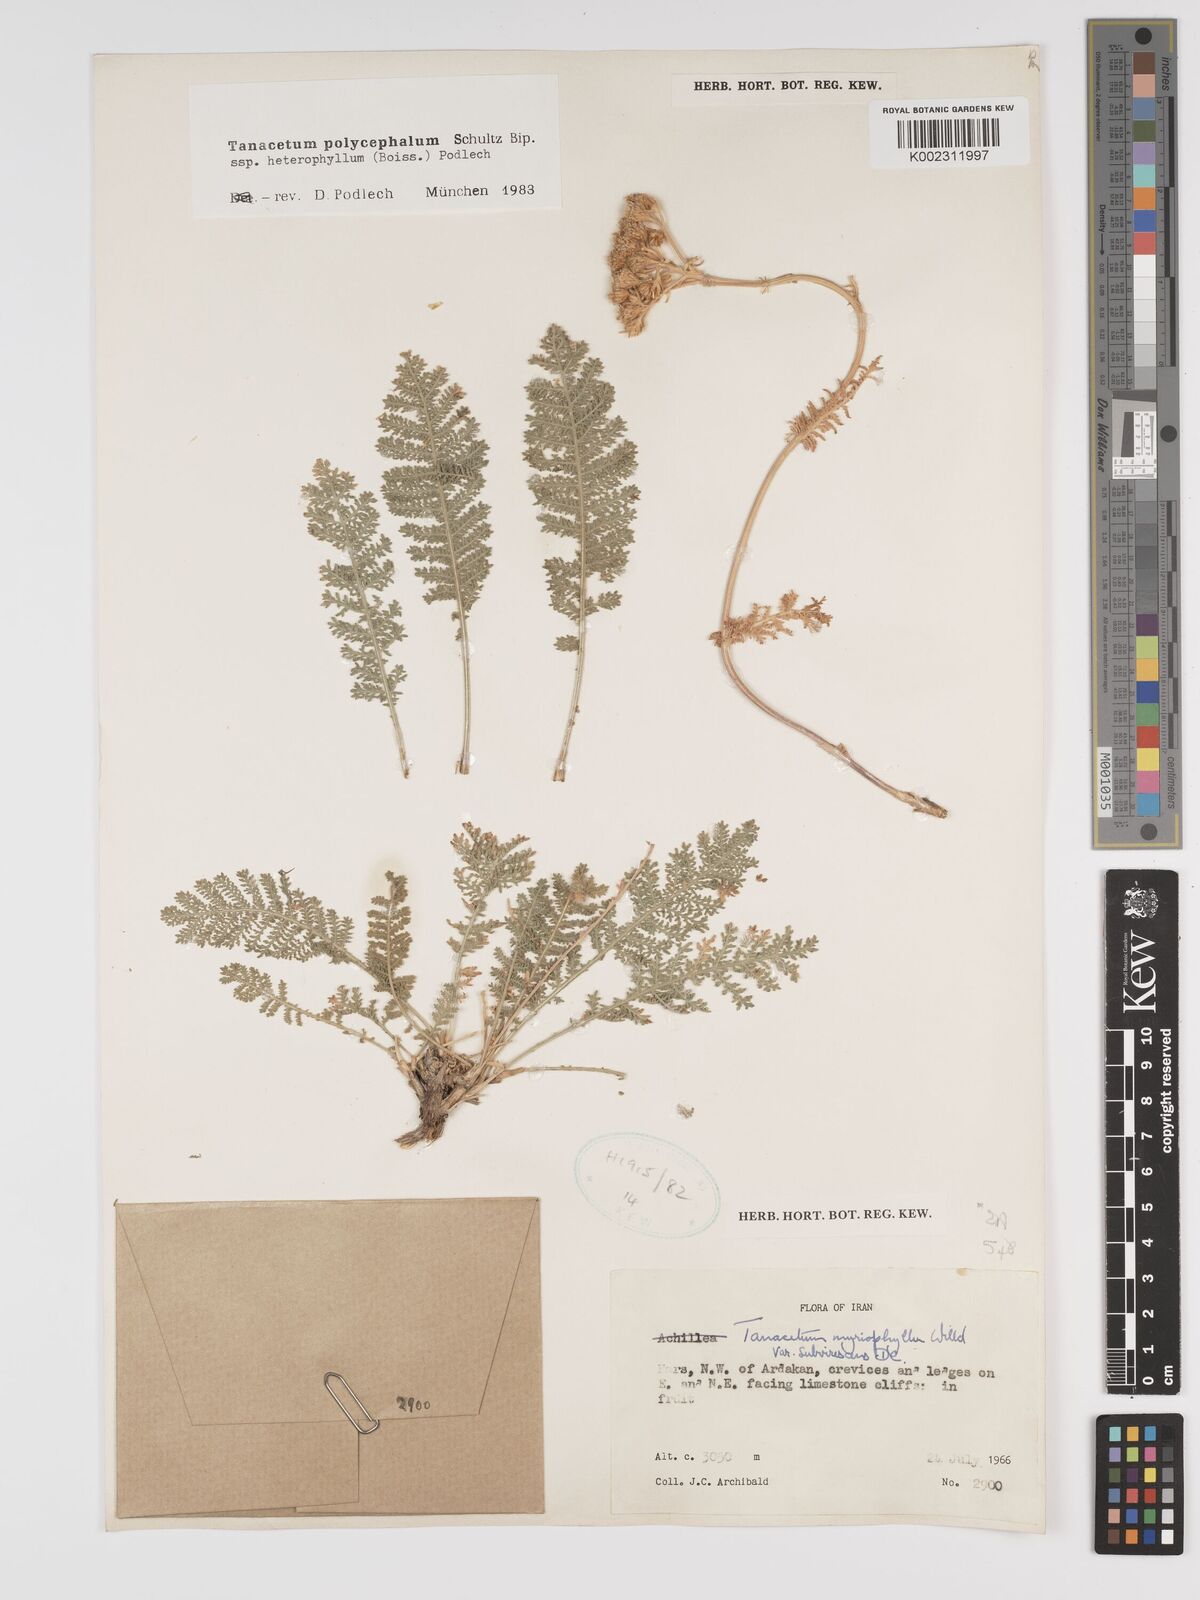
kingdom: Plantae
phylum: Tracheophyta
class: Magnoliopsida
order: Asterales
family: Asteraceae
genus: Tanacetum
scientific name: Tanacetum polycephalum
